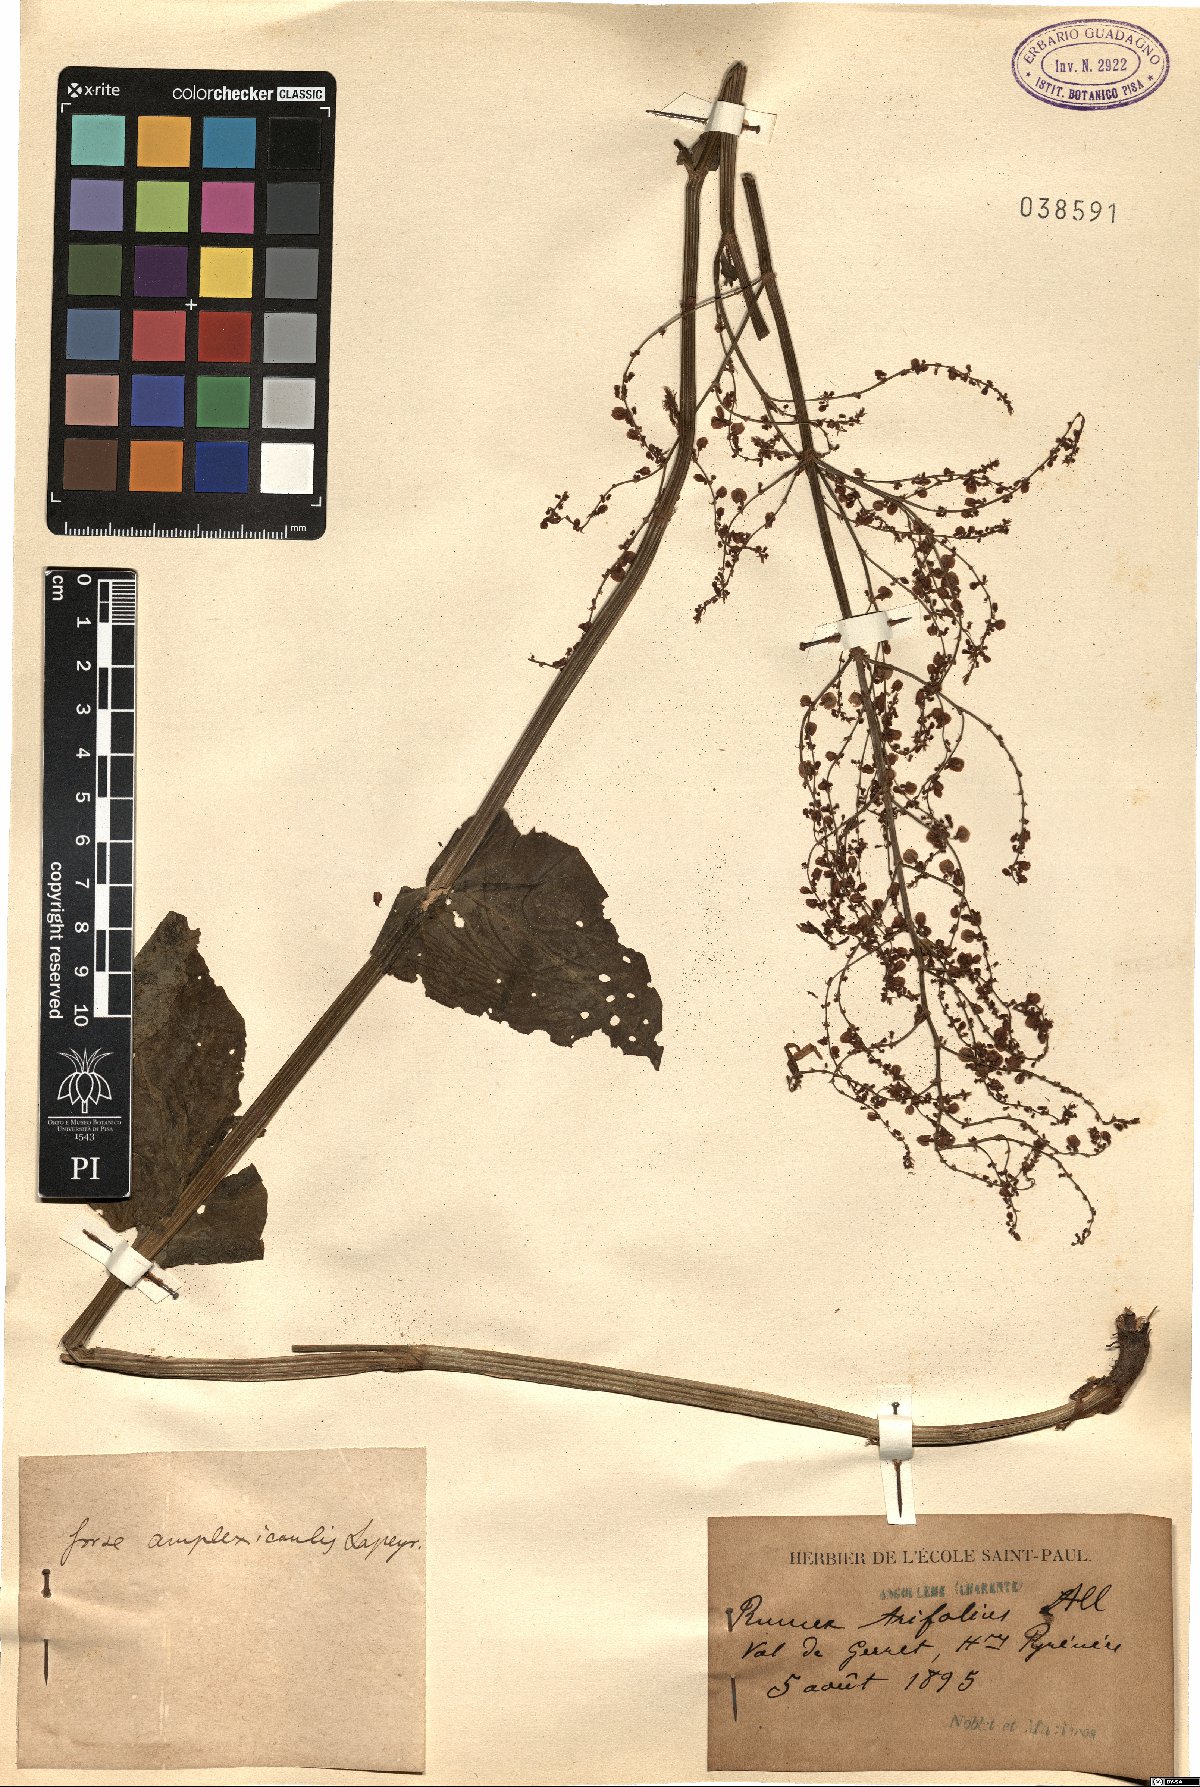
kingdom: Plantae
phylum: Tracheophyta
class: Magnoliopsida
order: Caryophyllales
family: Polygonaceae
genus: Rumex
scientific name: Rumex arifolius
